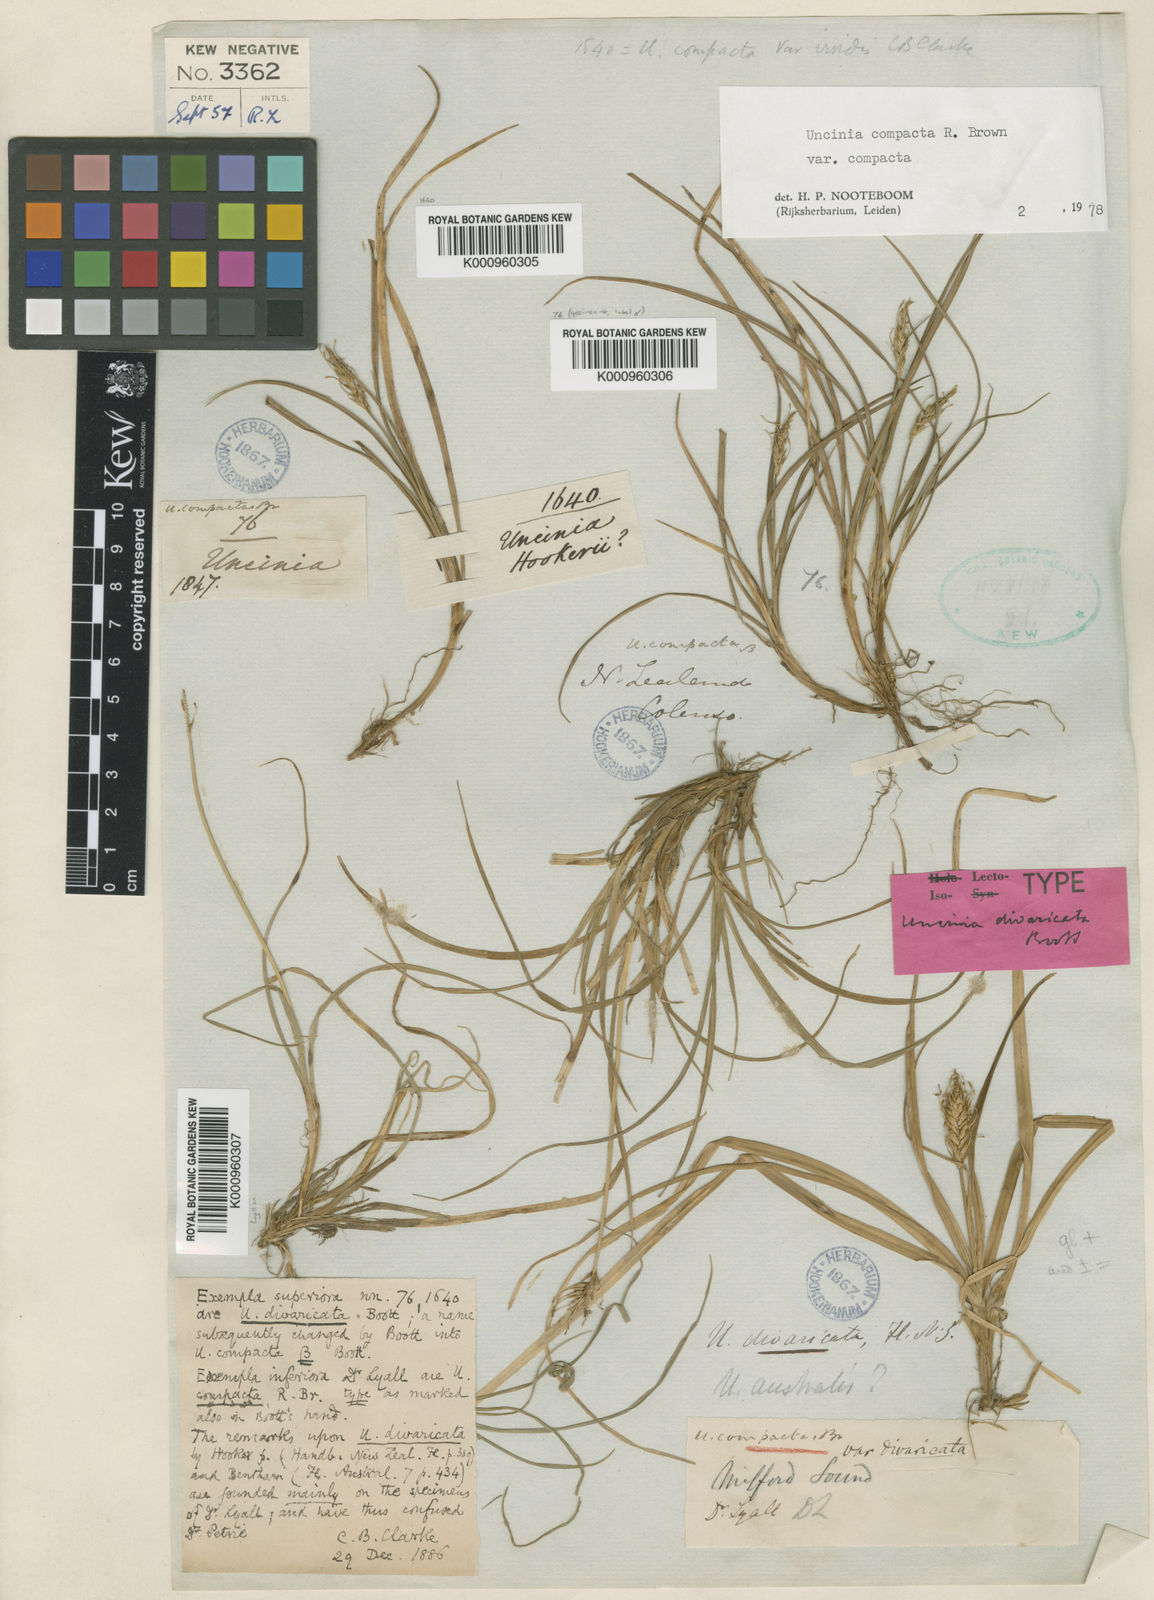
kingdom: Plantae
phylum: Tracheophyta
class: Liliopsida
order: Poales
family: Cyperaceae
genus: Carex
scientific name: Carex austrocompacta
